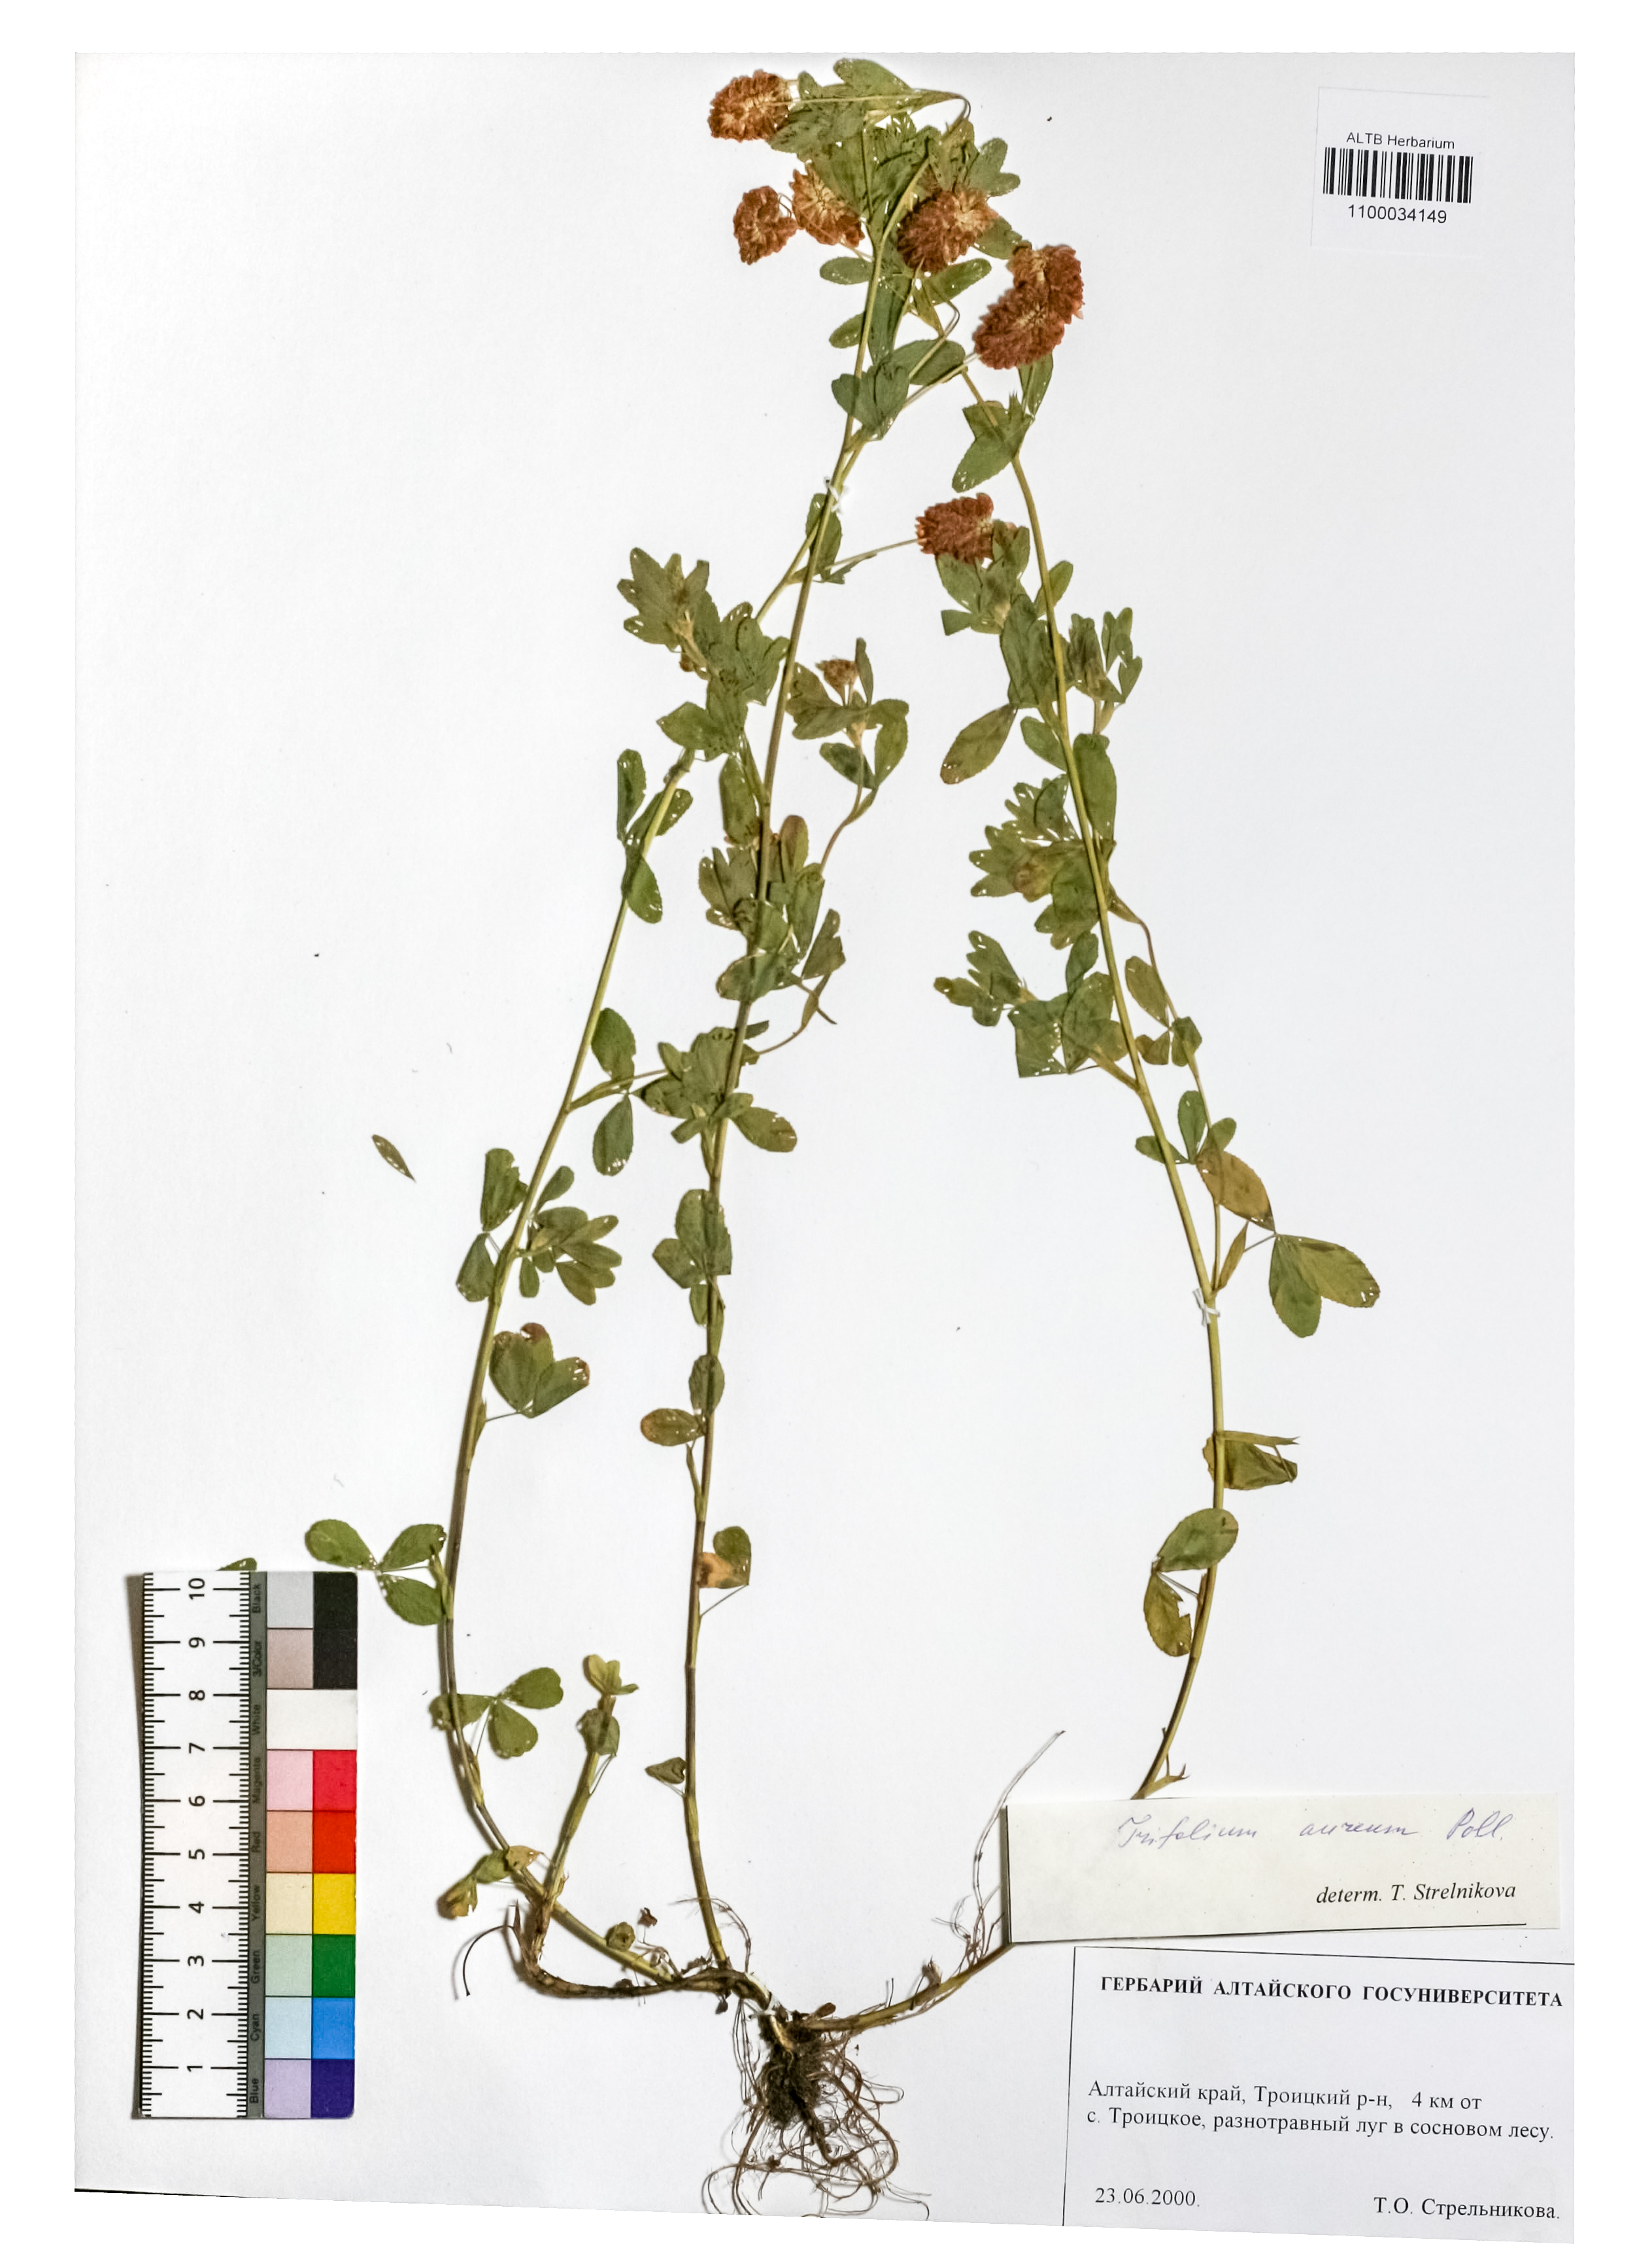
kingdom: Plantae
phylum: Tracheophyta
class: Magnoliopsida
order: Fabales
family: Fabaceae
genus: Trifolium
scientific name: Trifolium aureum
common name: Golden clover
